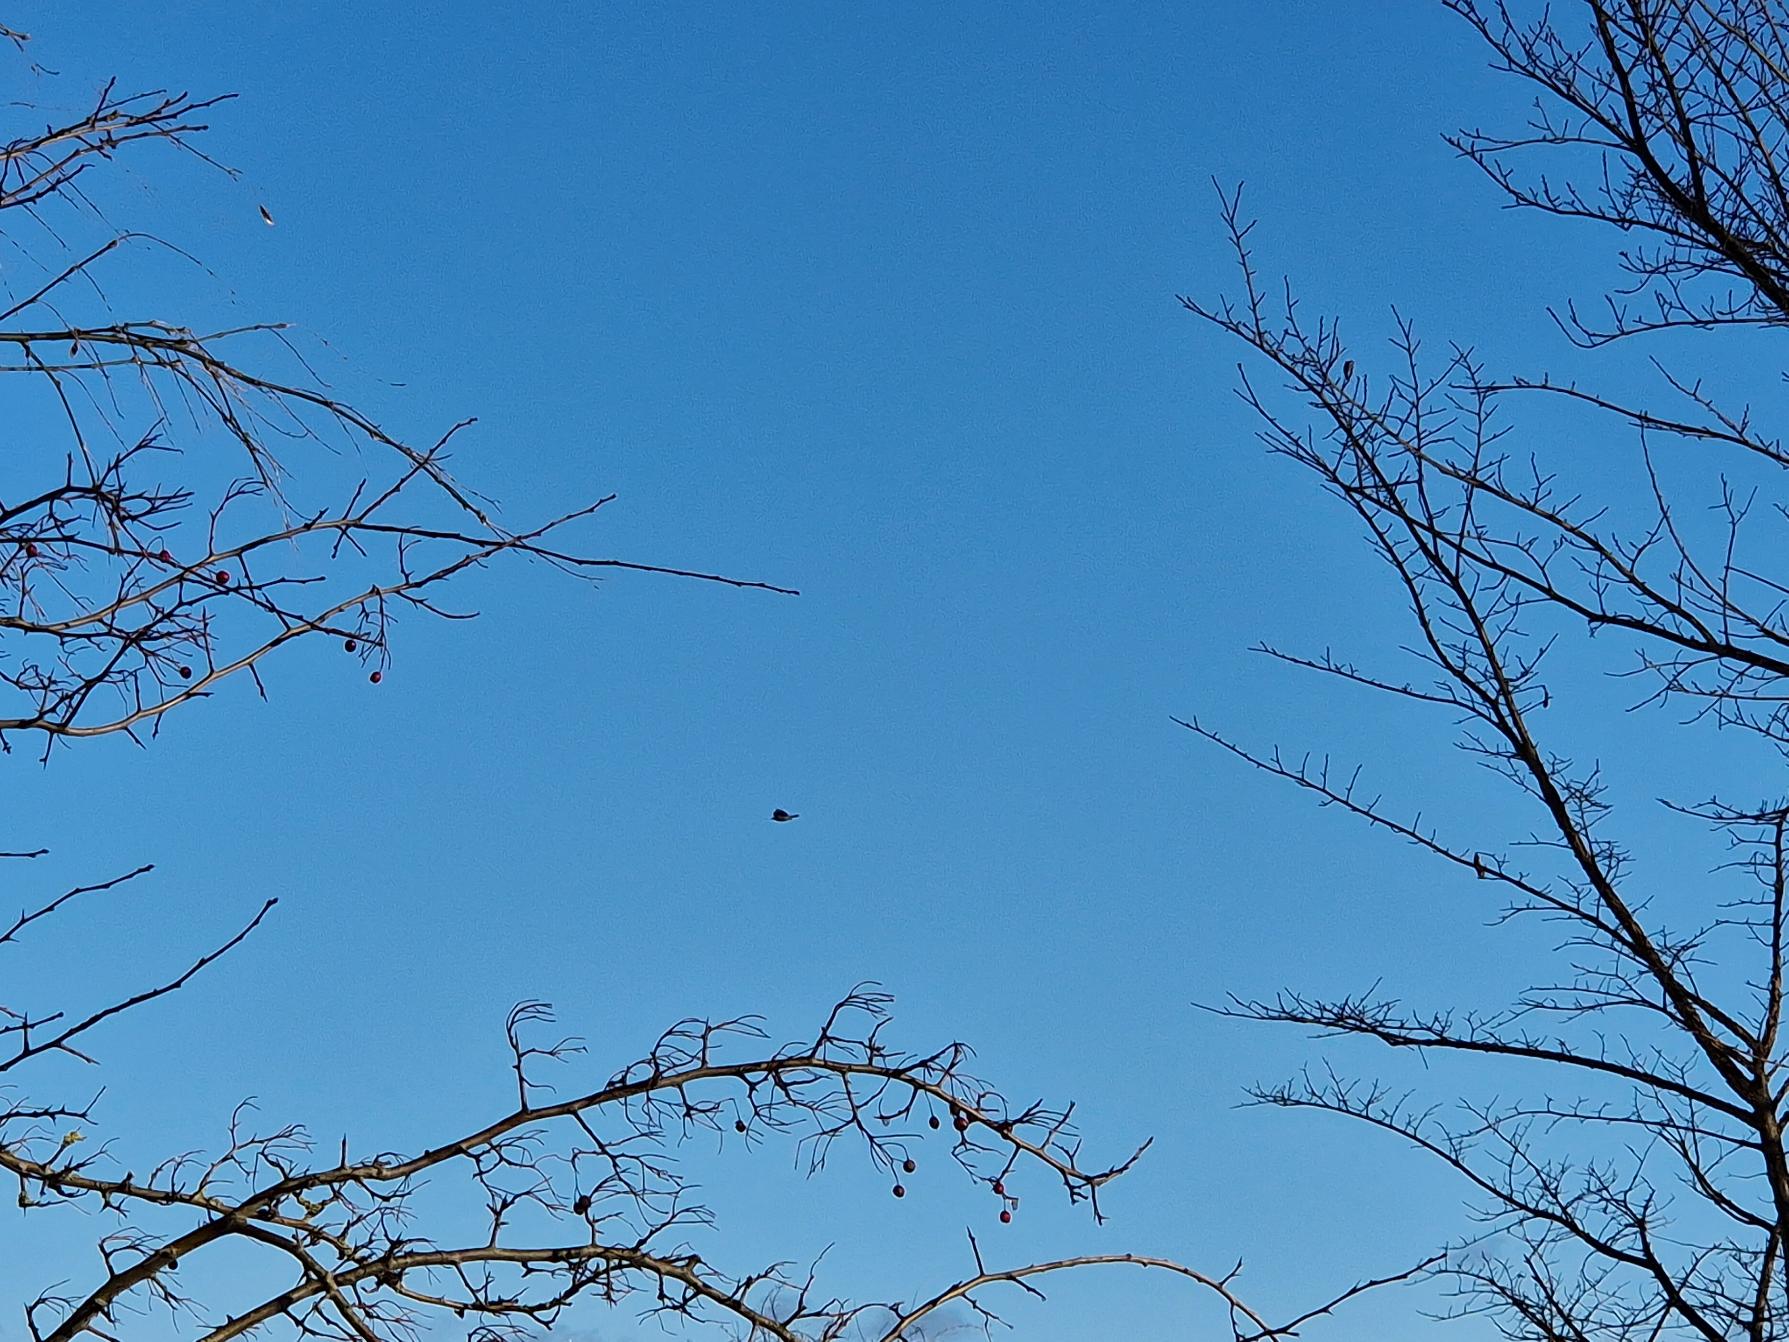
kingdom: Animalia
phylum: Chordata
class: Aves
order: Passeriformes
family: Corvidae
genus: Corvus
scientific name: Corvus cornix
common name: Gråkrage
